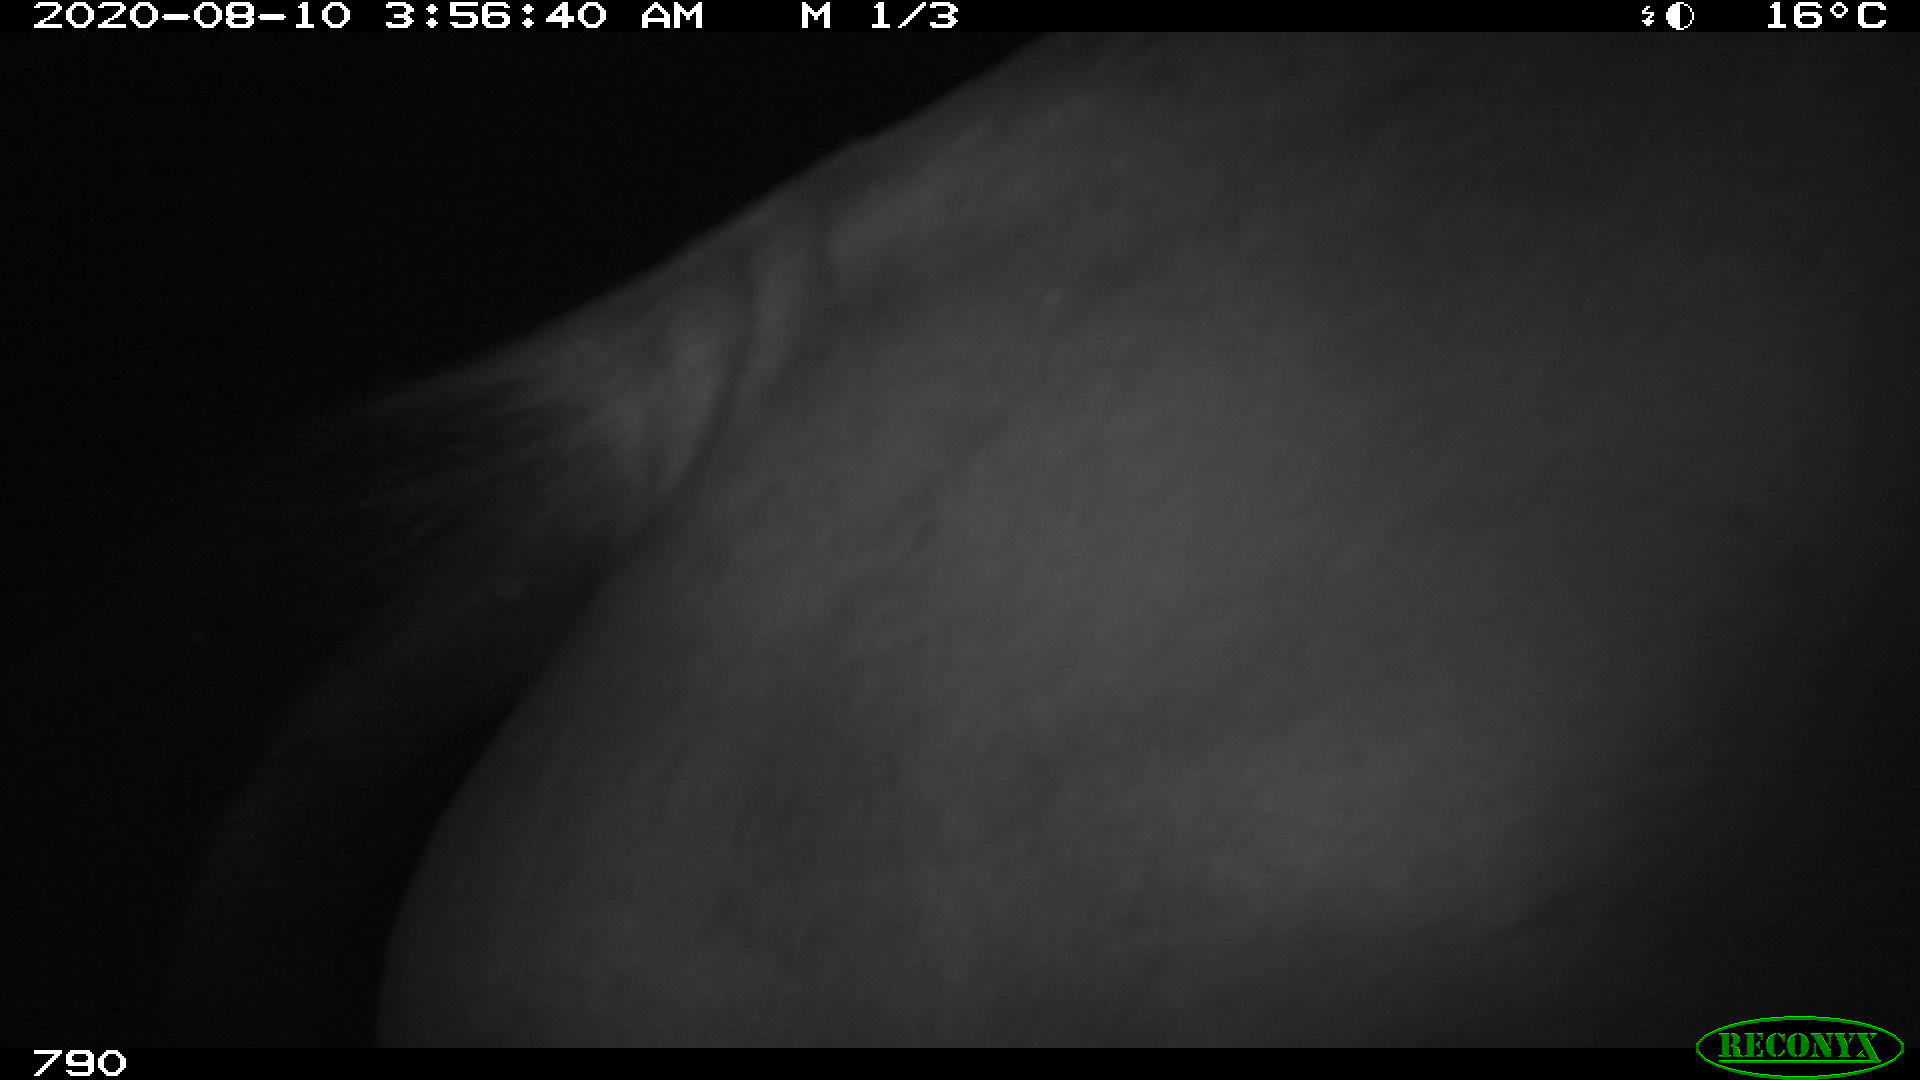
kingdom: Animalia
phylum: Chordata
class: Mammalia
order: Perissodactyla
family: Equidae
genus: Equus
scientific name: Equus caballus
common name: Horse
